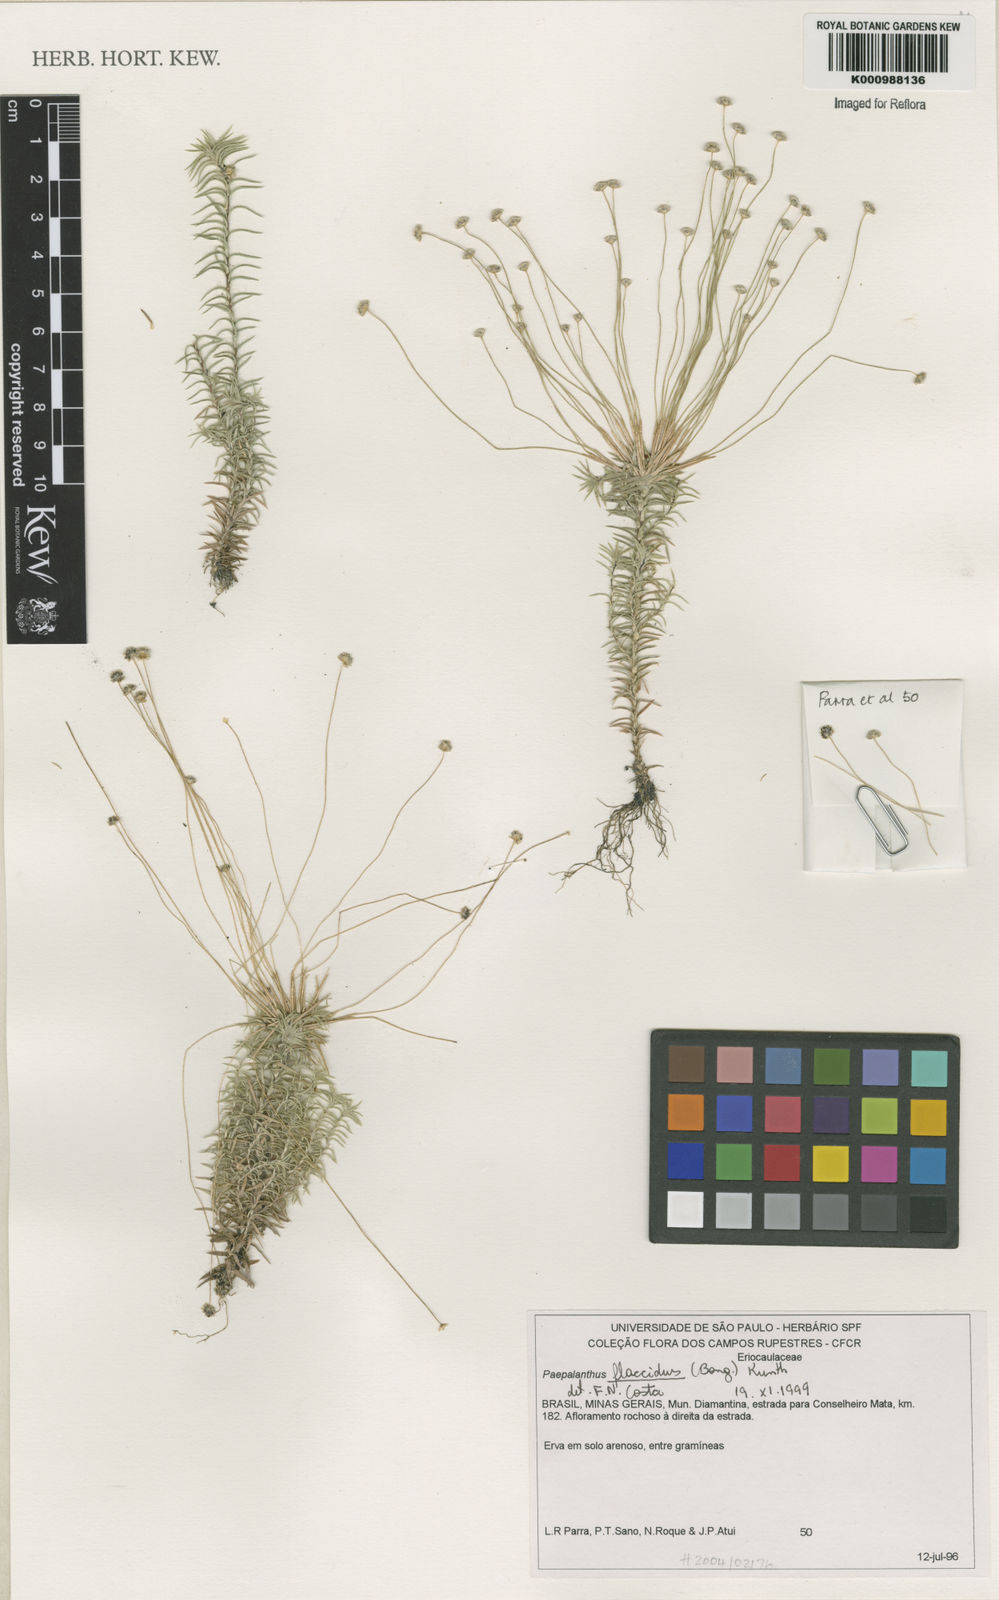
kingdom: Plantae
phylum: Tracheophyta
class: Liliopsida
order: Poales
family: Eriocaulaceae
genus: Paepalanthus
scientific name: Paepalanthus flaccidus
